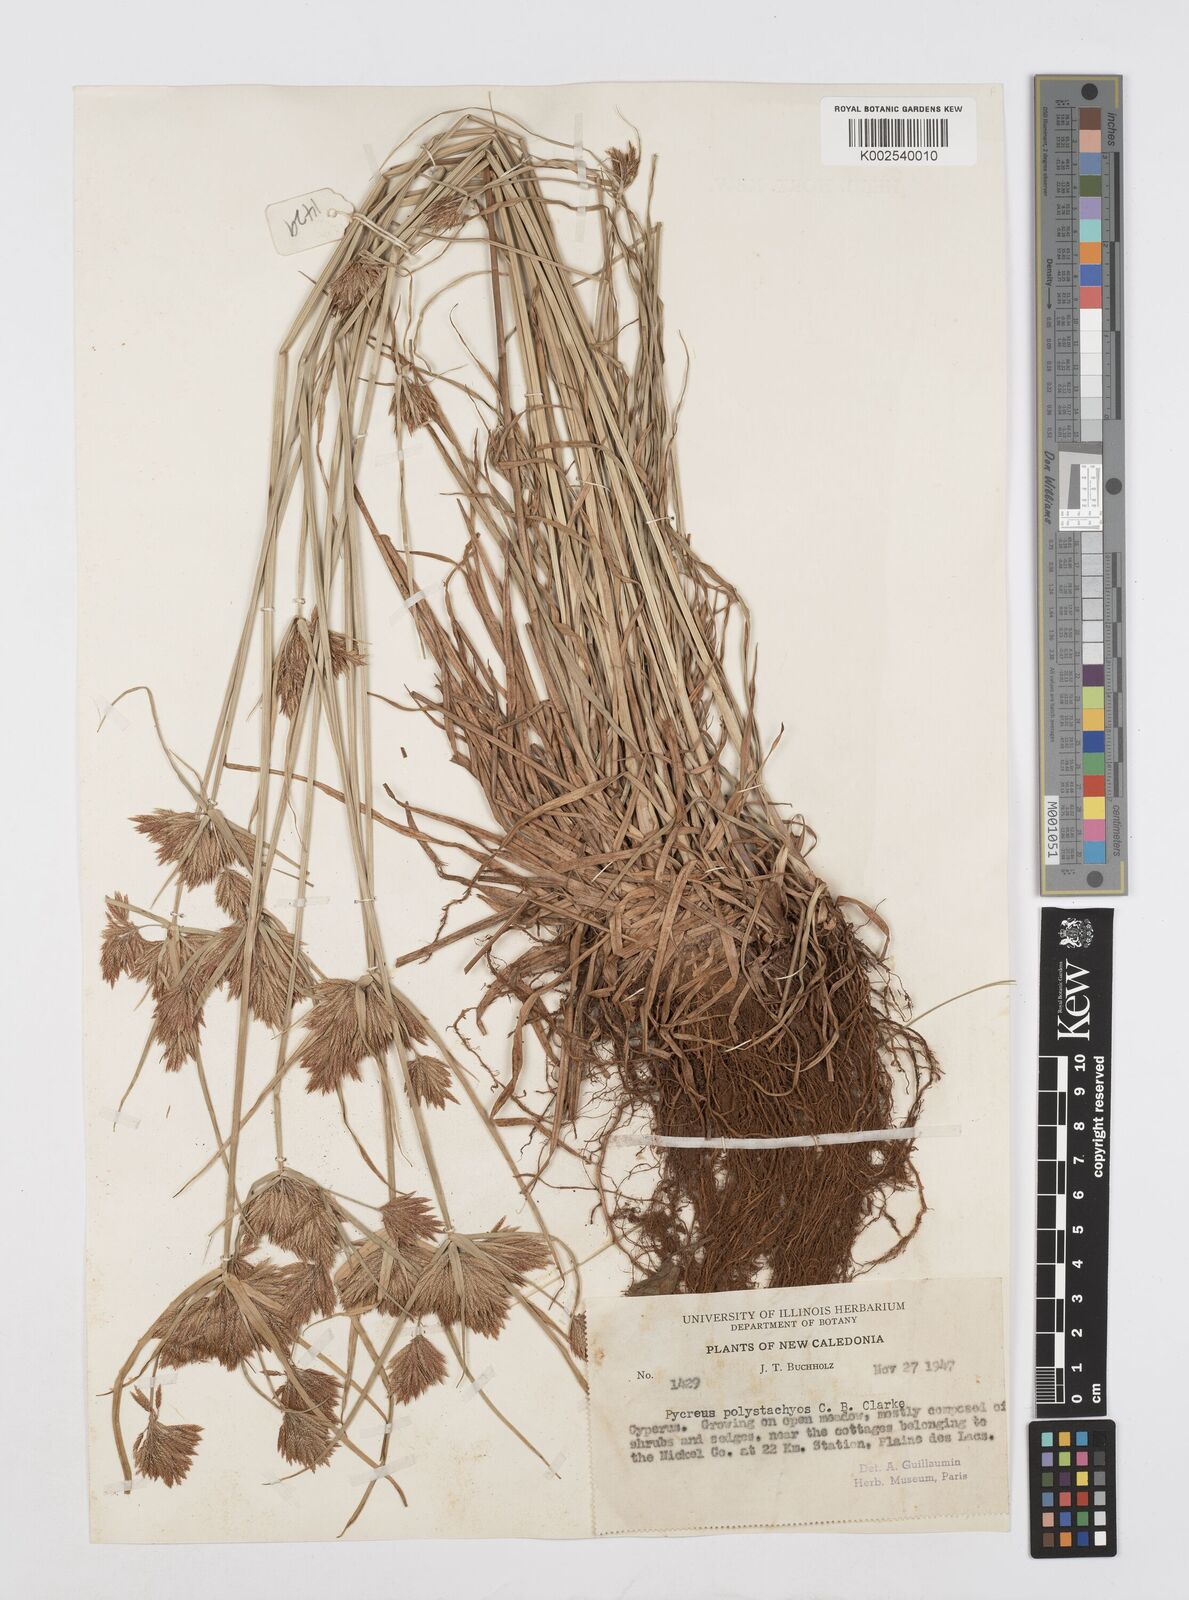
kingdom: Plantae
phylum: Tracheophyta
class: Liliopsida
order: Poales
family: Cyperaceae
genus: Cyperus
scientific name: Cyperus polystachyos
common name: Bunchy flat sedge
